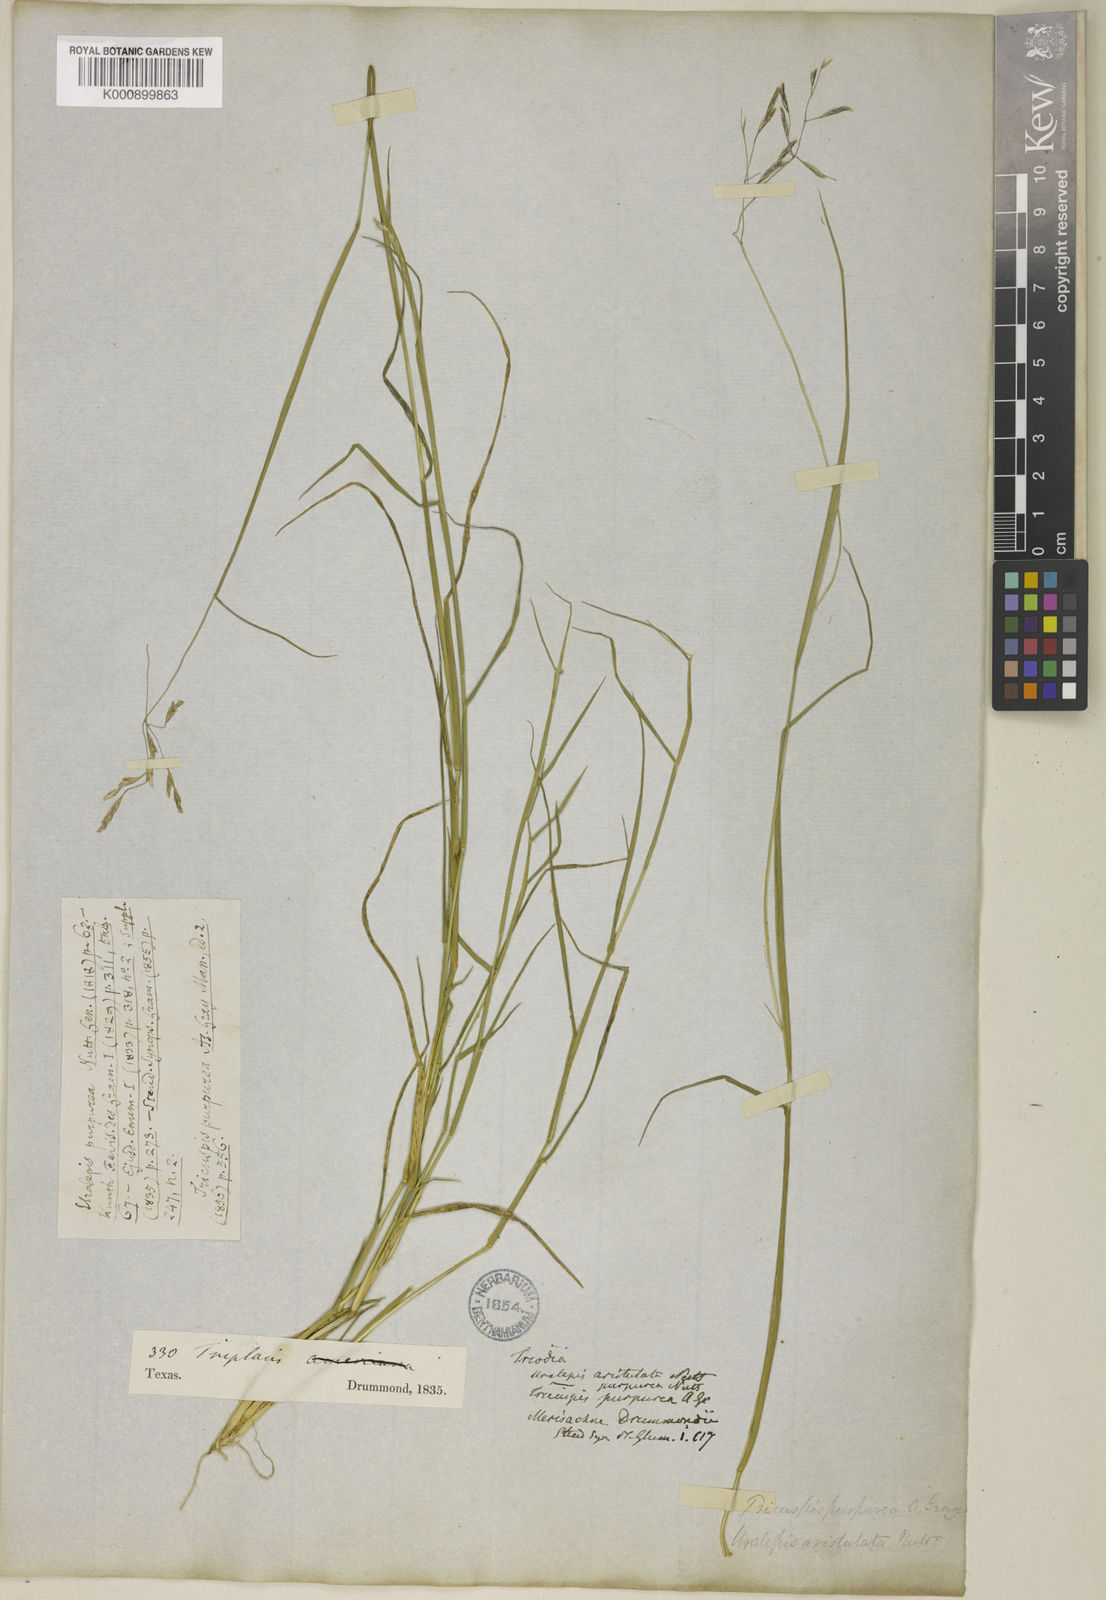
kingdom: Plantae
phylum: Tracheophyta
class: Liliopsida
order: Poales
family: Poaceae
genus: Triplasis
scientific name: Triplasis purpurea
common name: Purple sand grass
